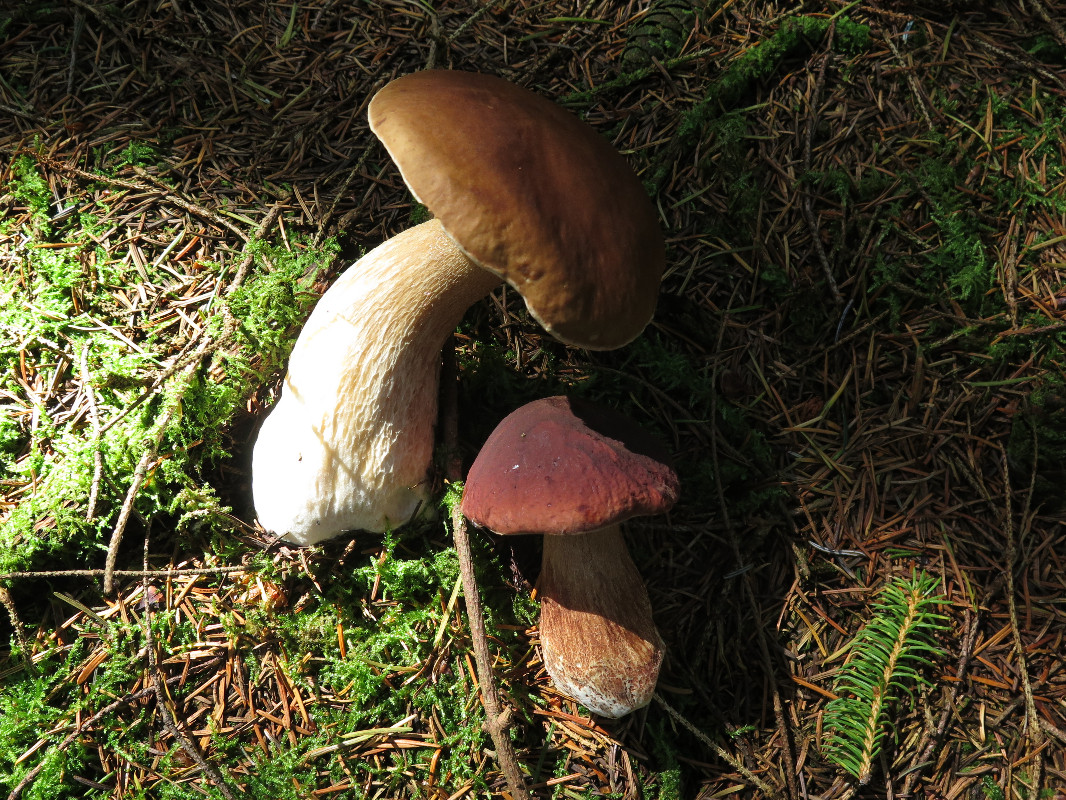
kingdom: Fungi
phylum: Basidiomycota
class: Agaricomycetes
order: Boletales
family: Boletaceae
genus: Boletus
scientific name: Boletus pinophilus
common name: rødbrun rørhat
